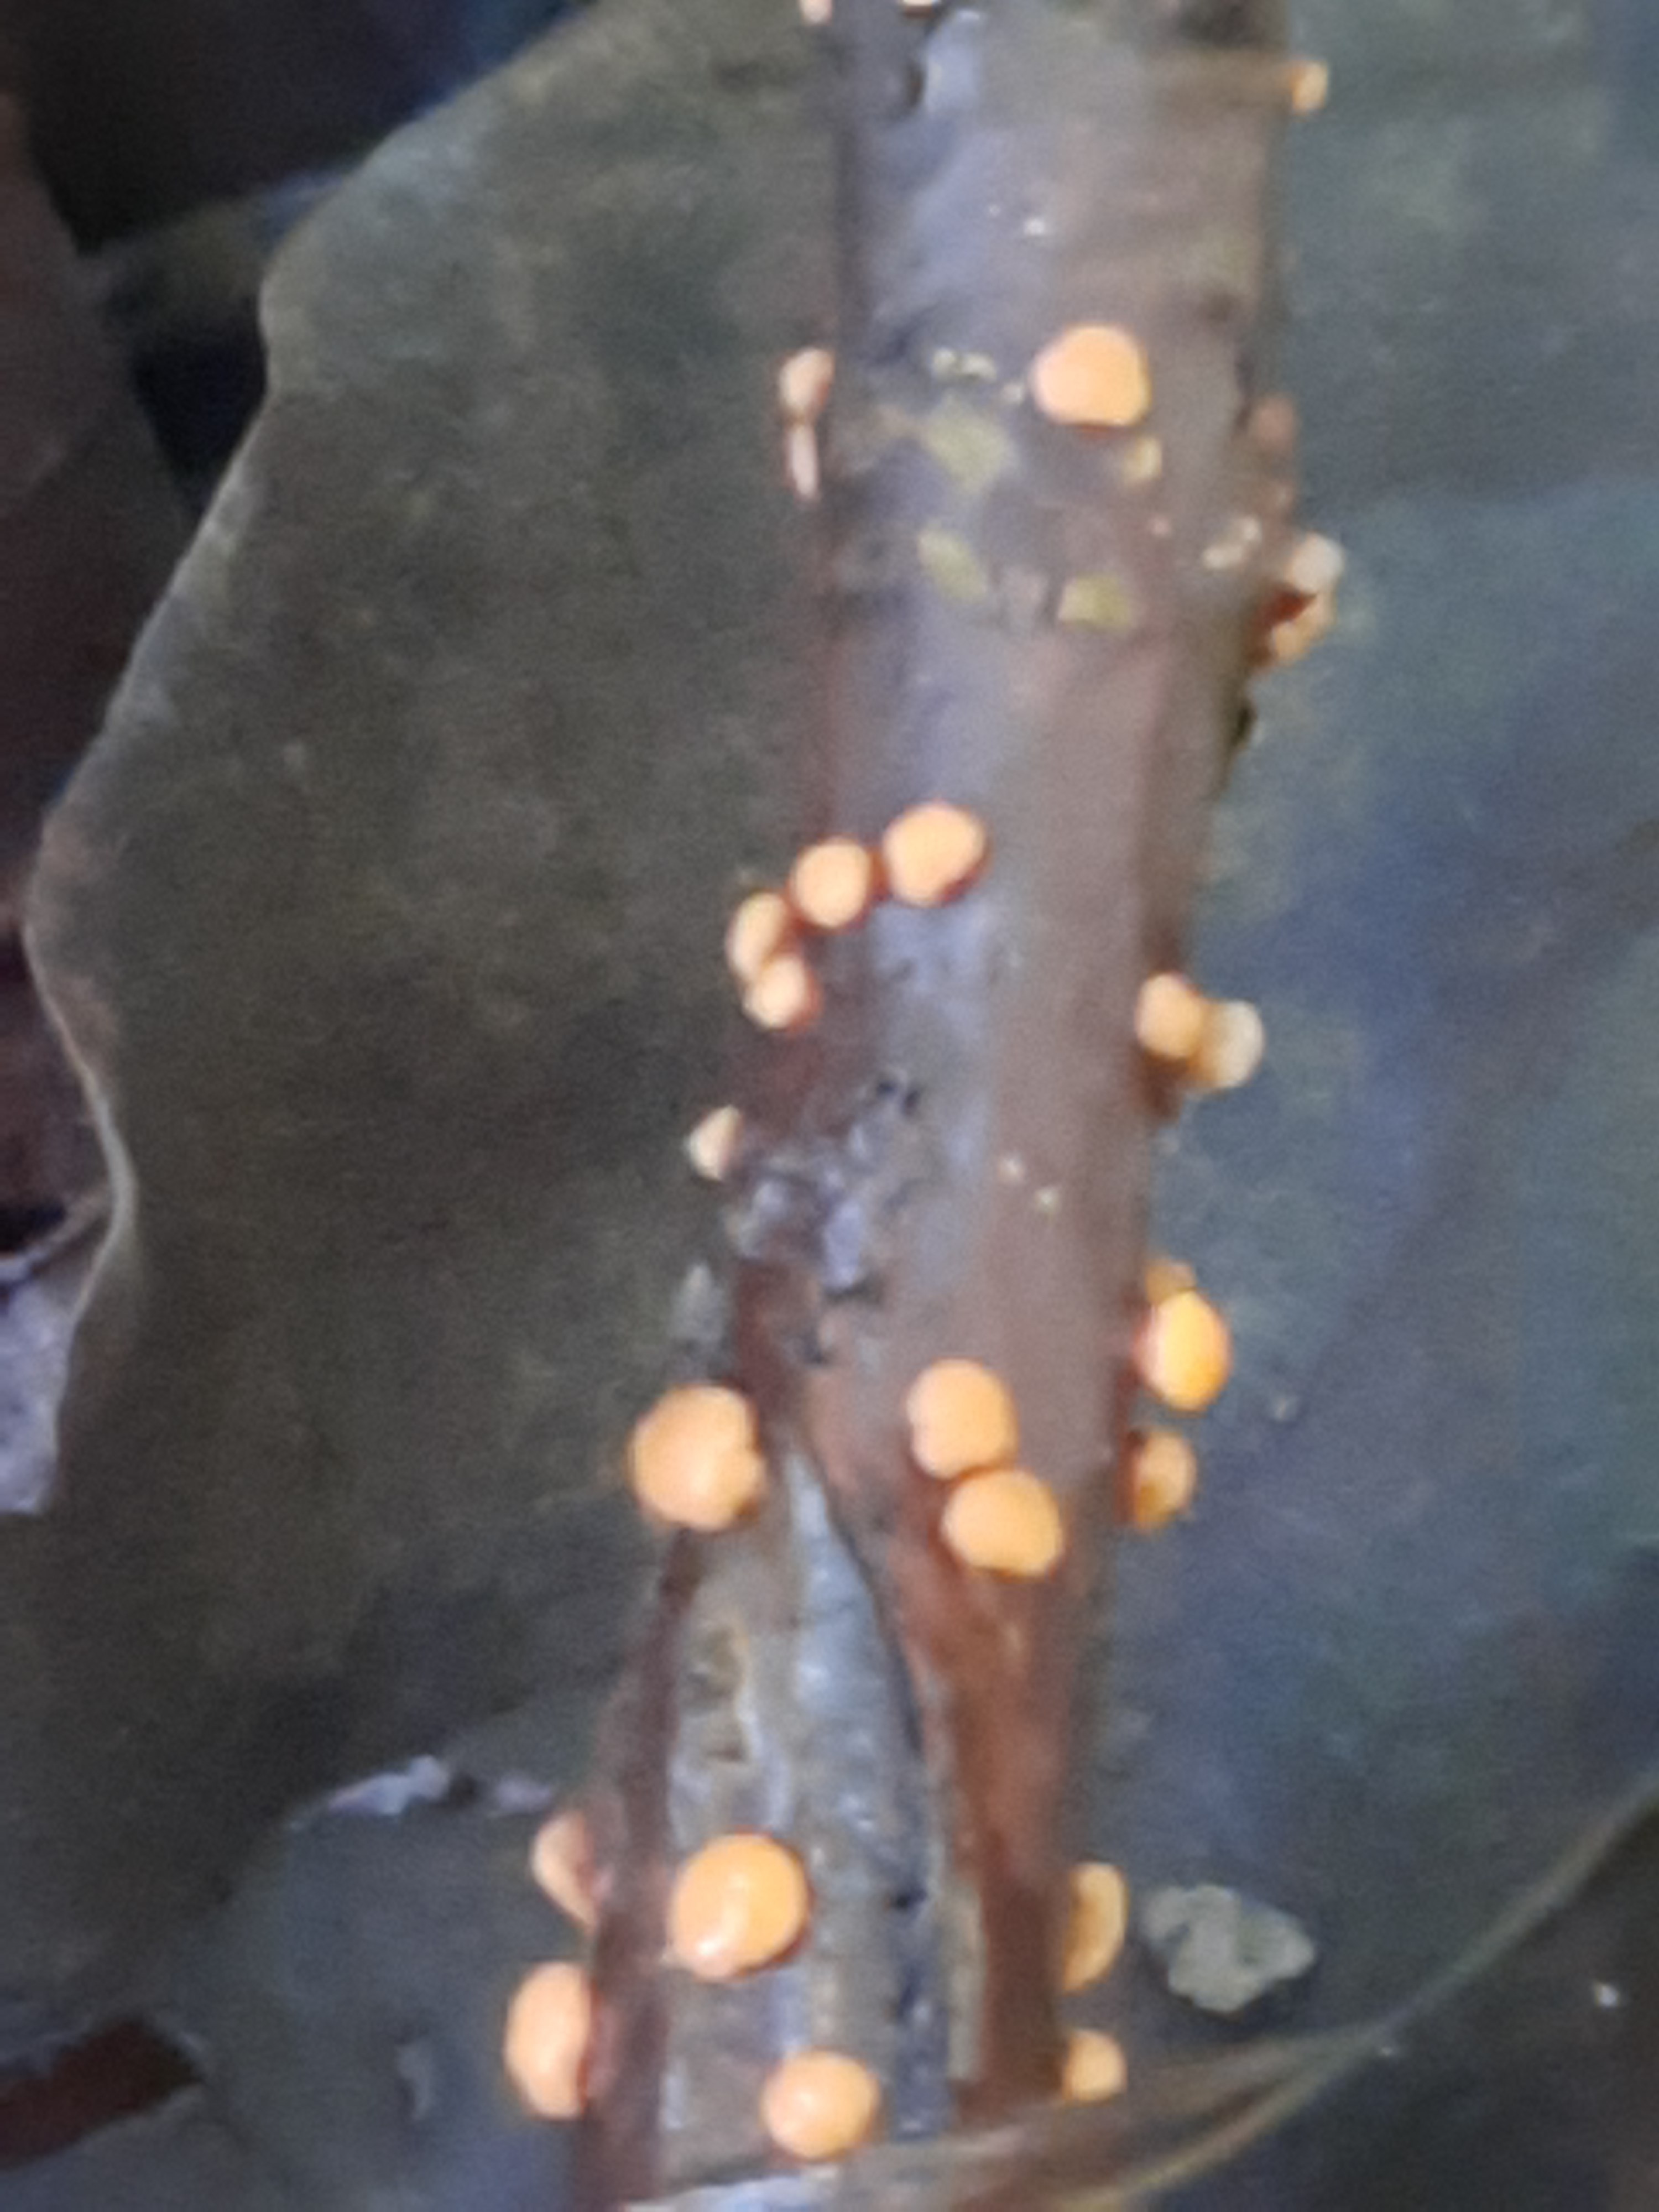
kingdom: Fungi
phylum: Ascomycota
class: Sordariomycetes
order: Hypocreales
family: Nectriaceae
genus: Nectria
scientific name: Nectria cinnabarina
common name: almindelig cinnobersvamp
